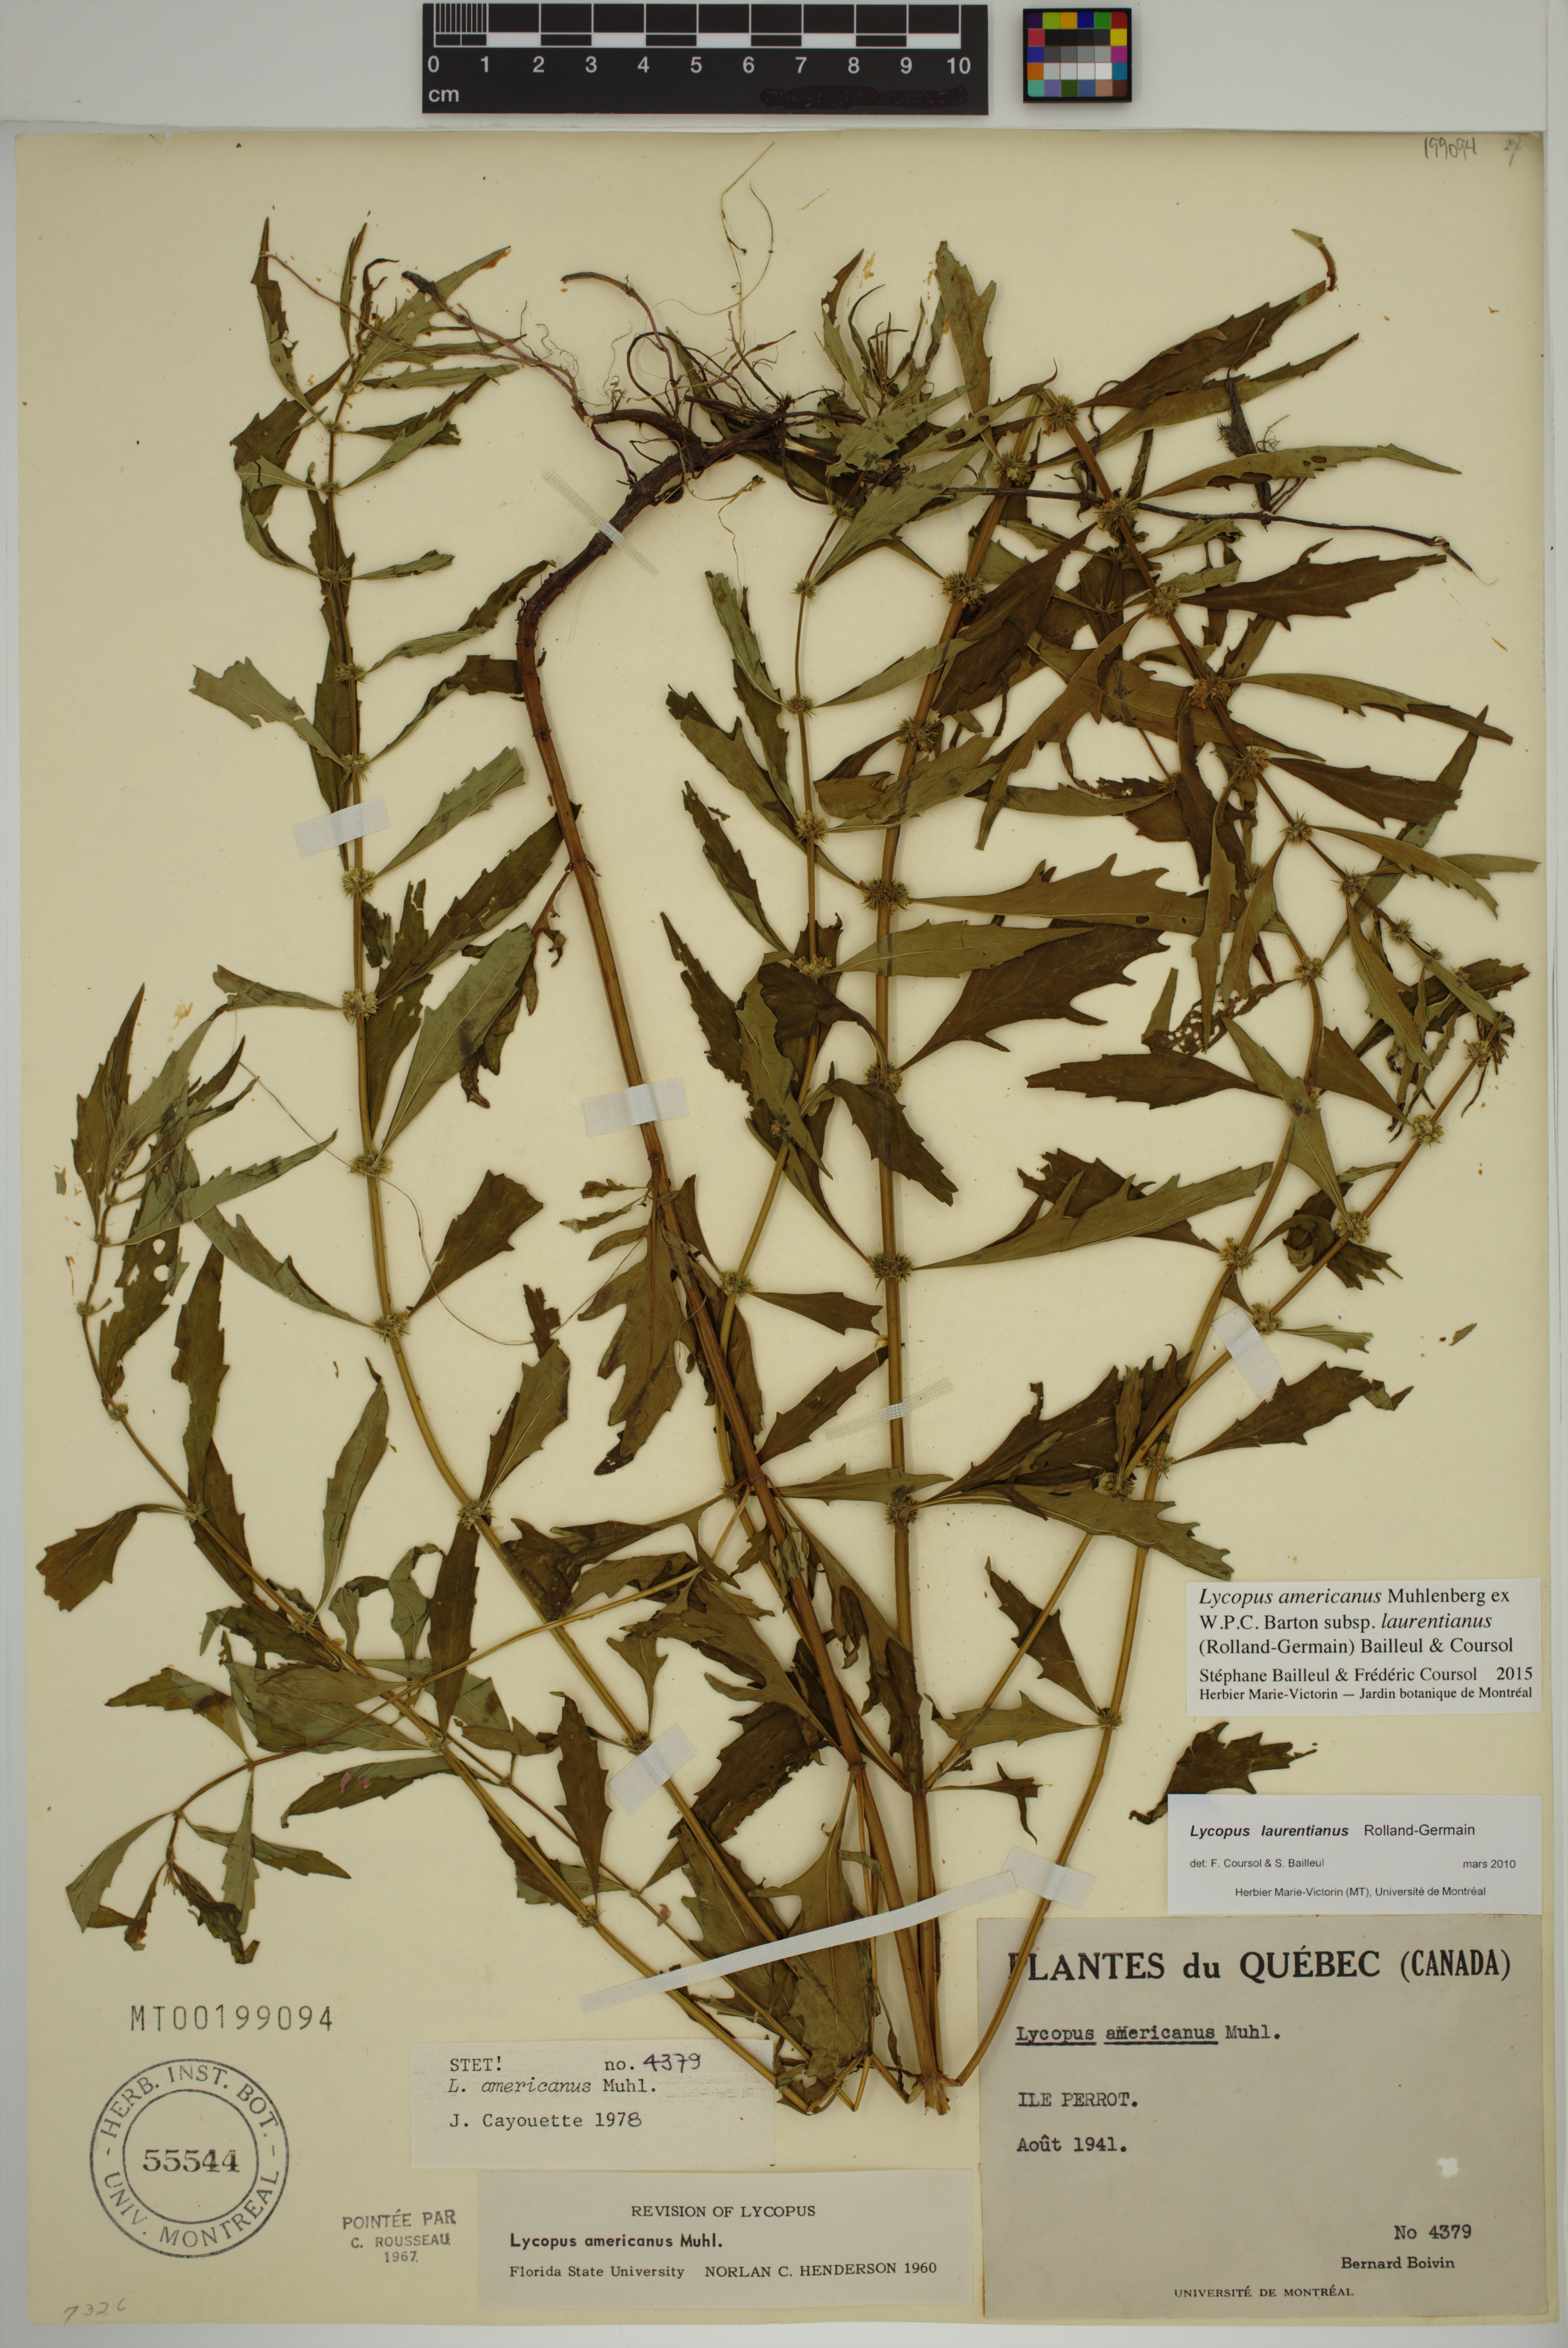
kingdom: Plantae
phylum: Tracheophyta
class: Magnoliopsida
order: Lamiales
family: Lamiaceae
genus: Lycopus
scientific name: Lycopus americanus
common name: American bugleweed
